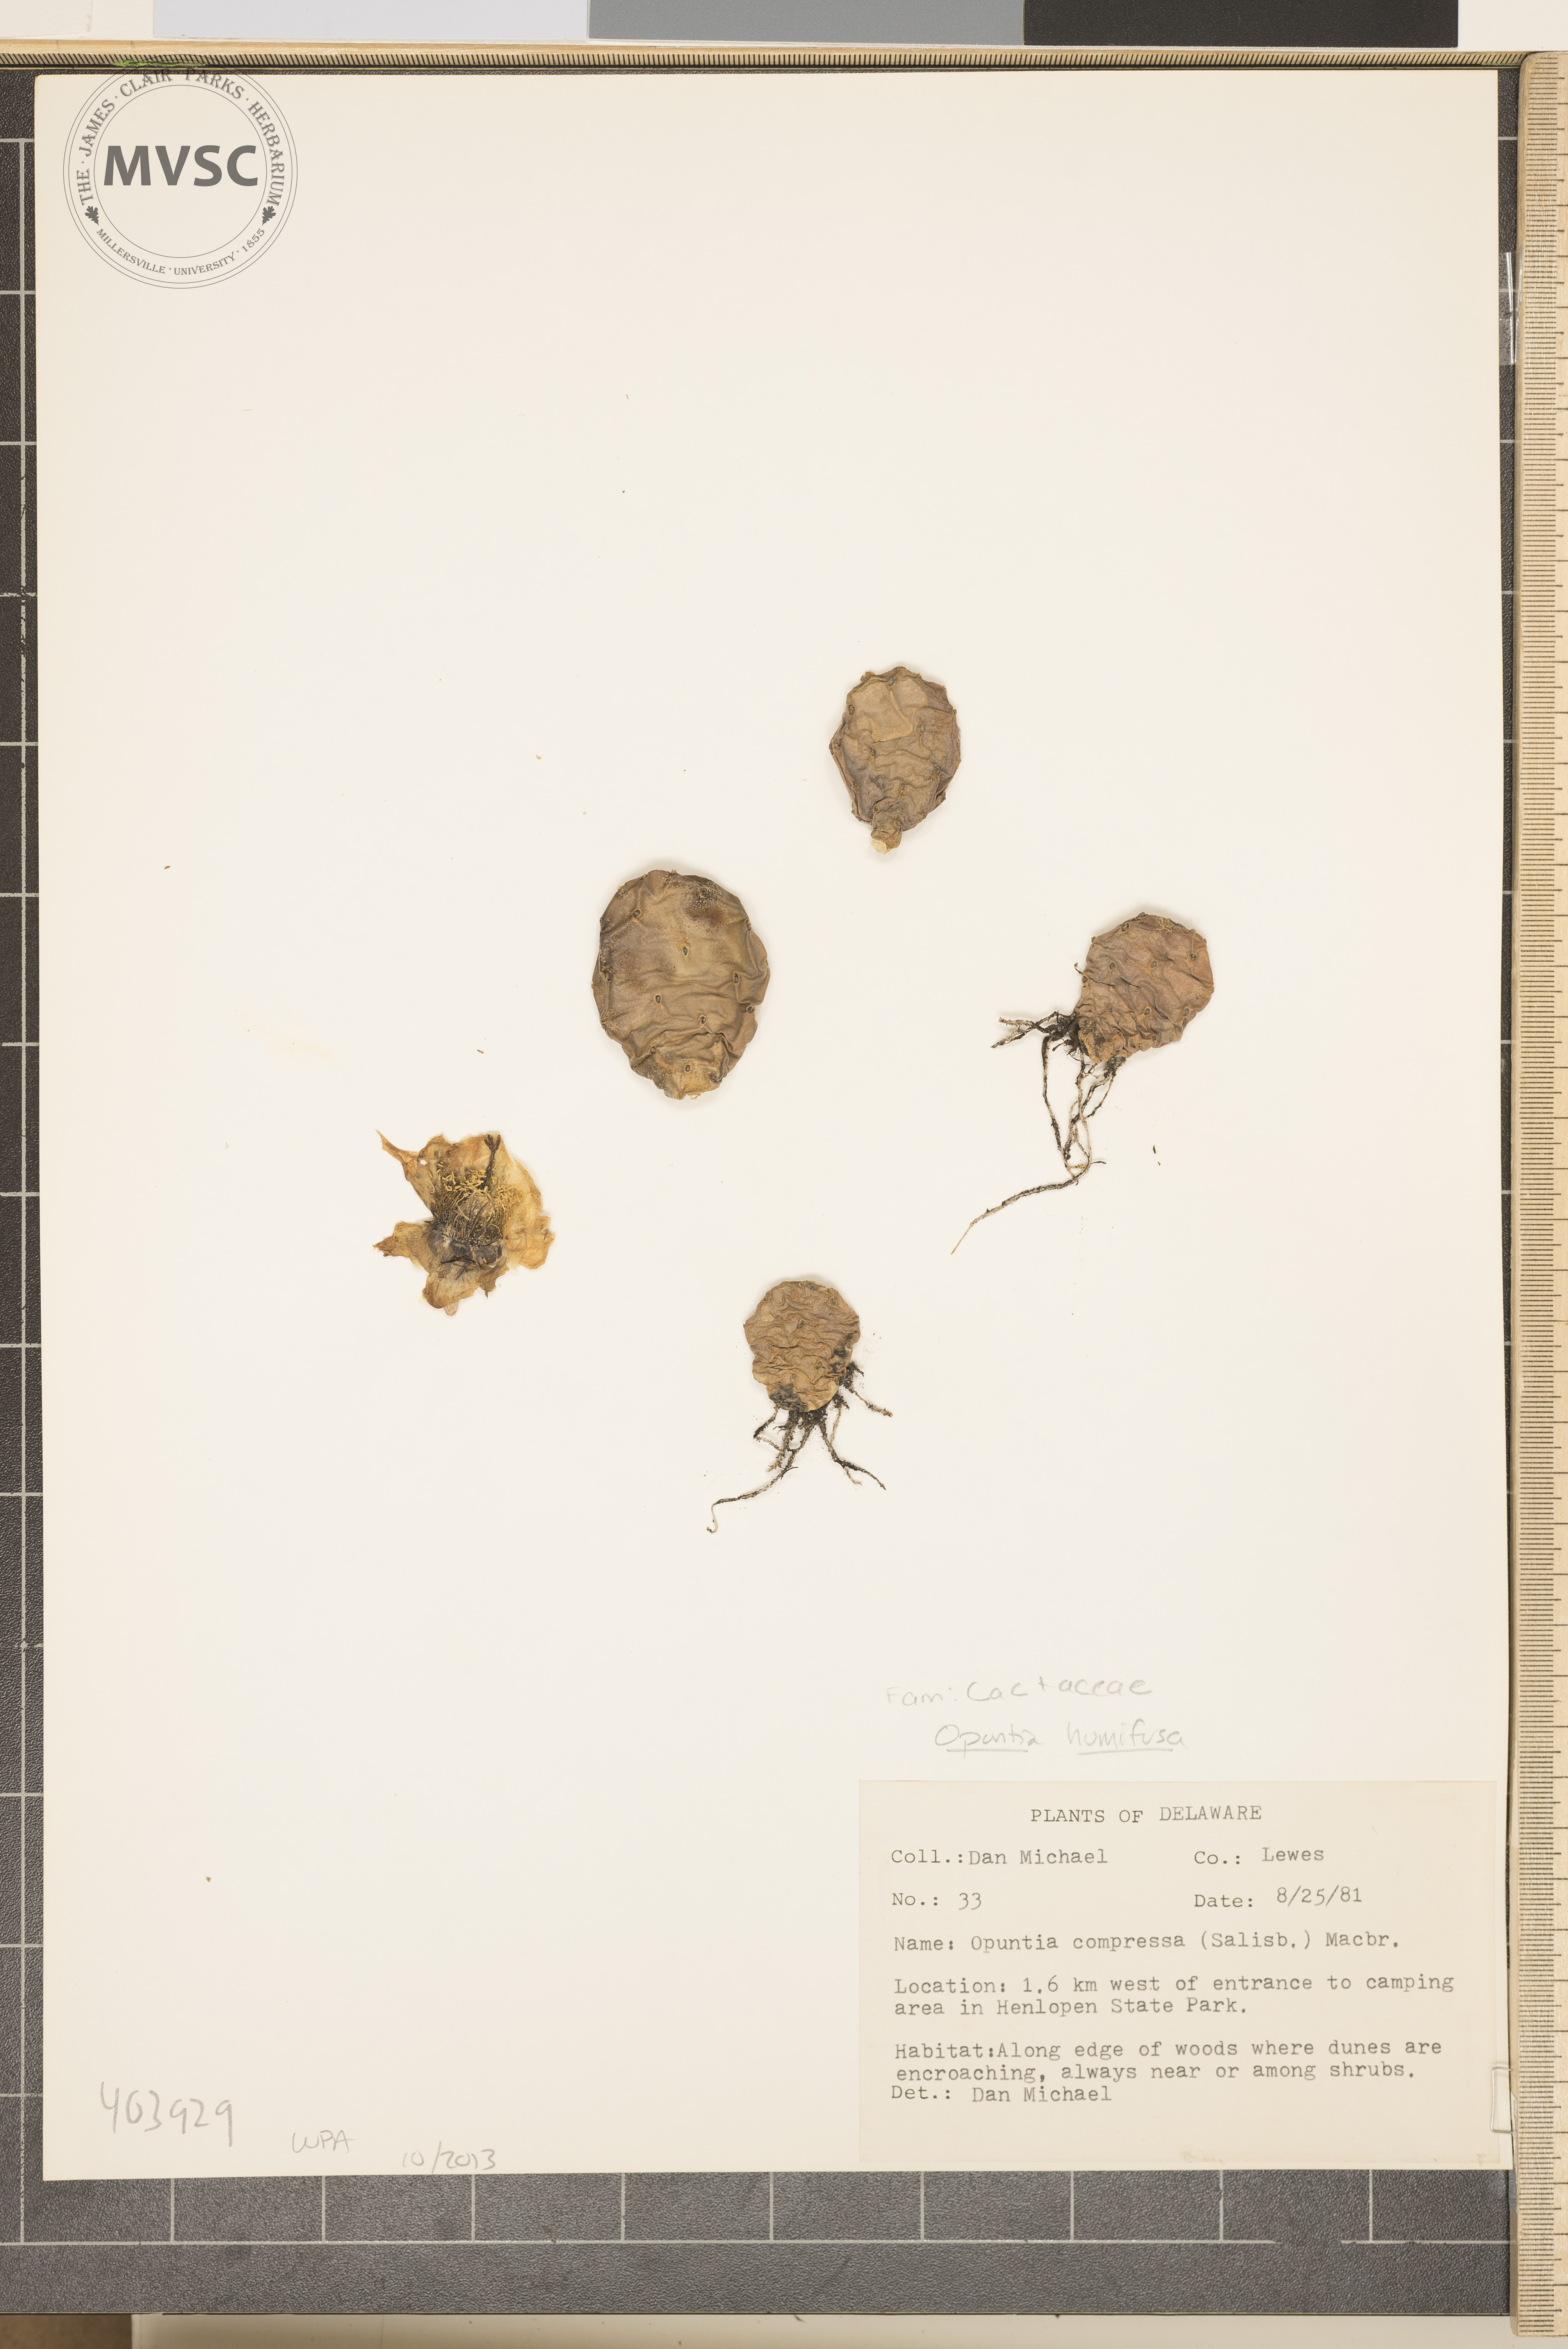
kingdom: Plantae
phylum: Tracheophyta
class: Magnoliopsida
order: Caryophyllales
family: Cactaceae
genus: Opuntia
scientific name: Opuntia humifusa
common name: Prickly-pear
